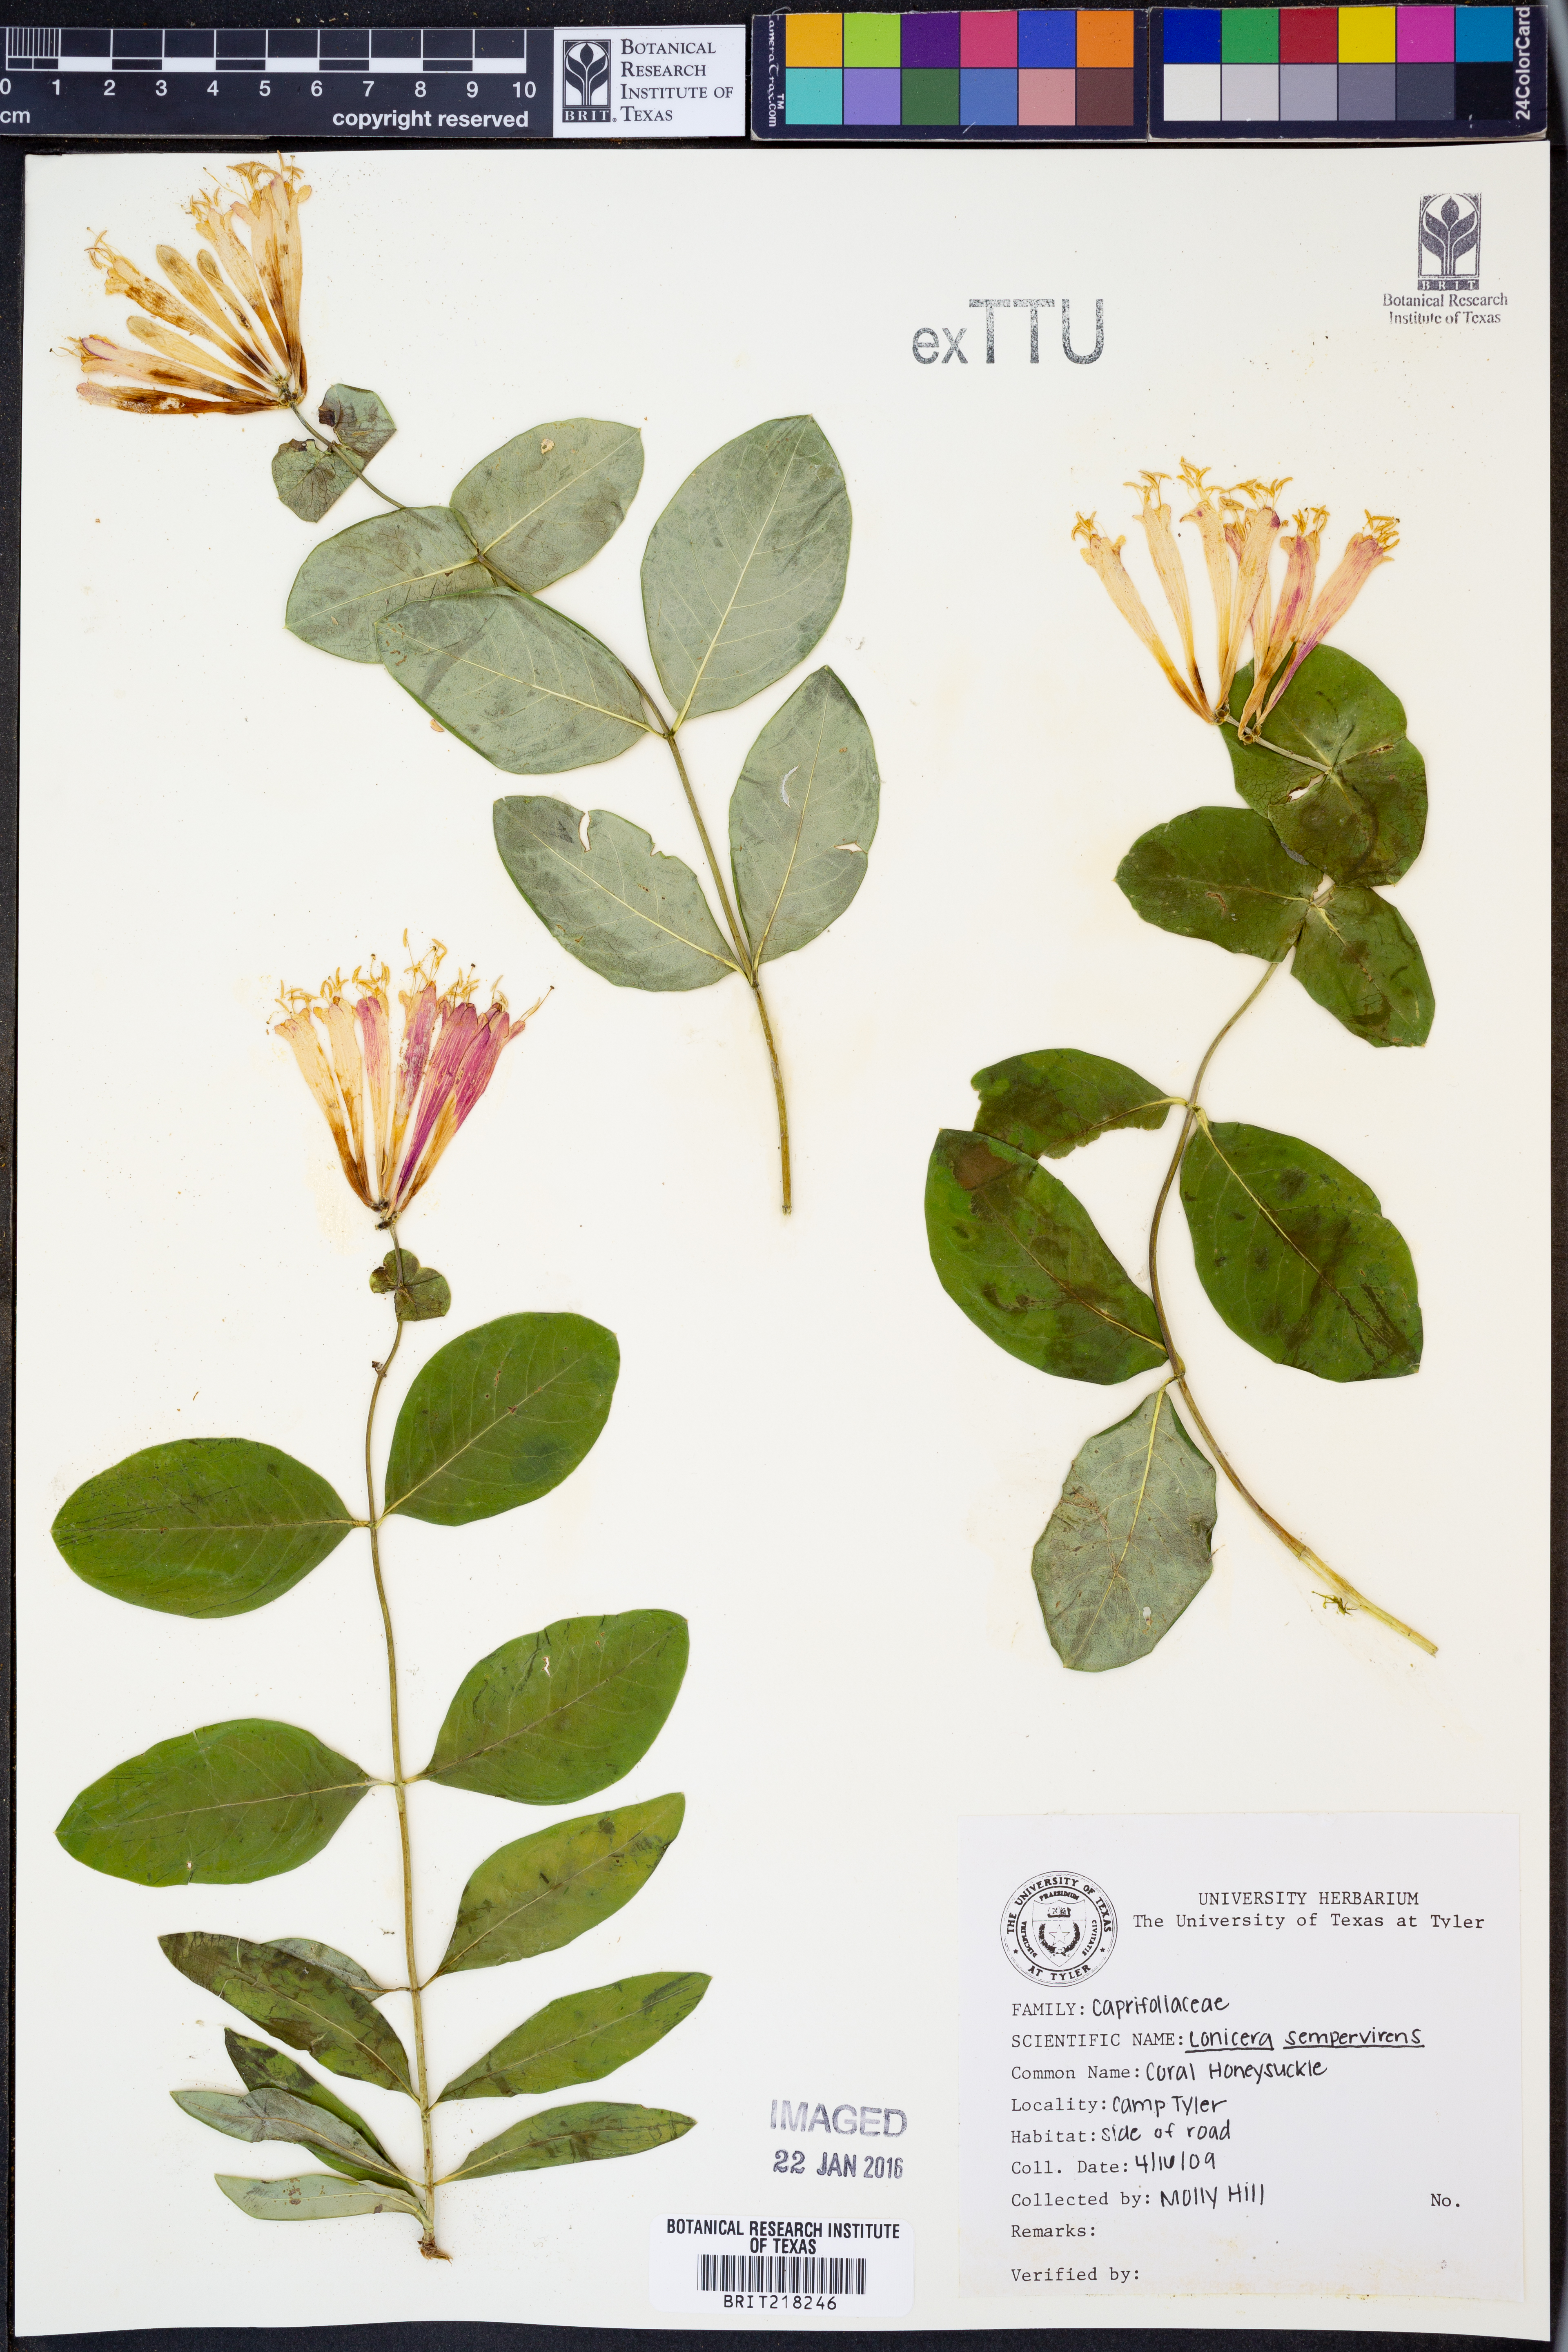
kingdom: Plantae
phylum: Tracheophyta
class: Magnoliopsida
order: Dipsacales
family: Caprifoliaceae
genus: Lonicera
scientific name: Lonicera sempervirens
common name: Coral honeysuckle
